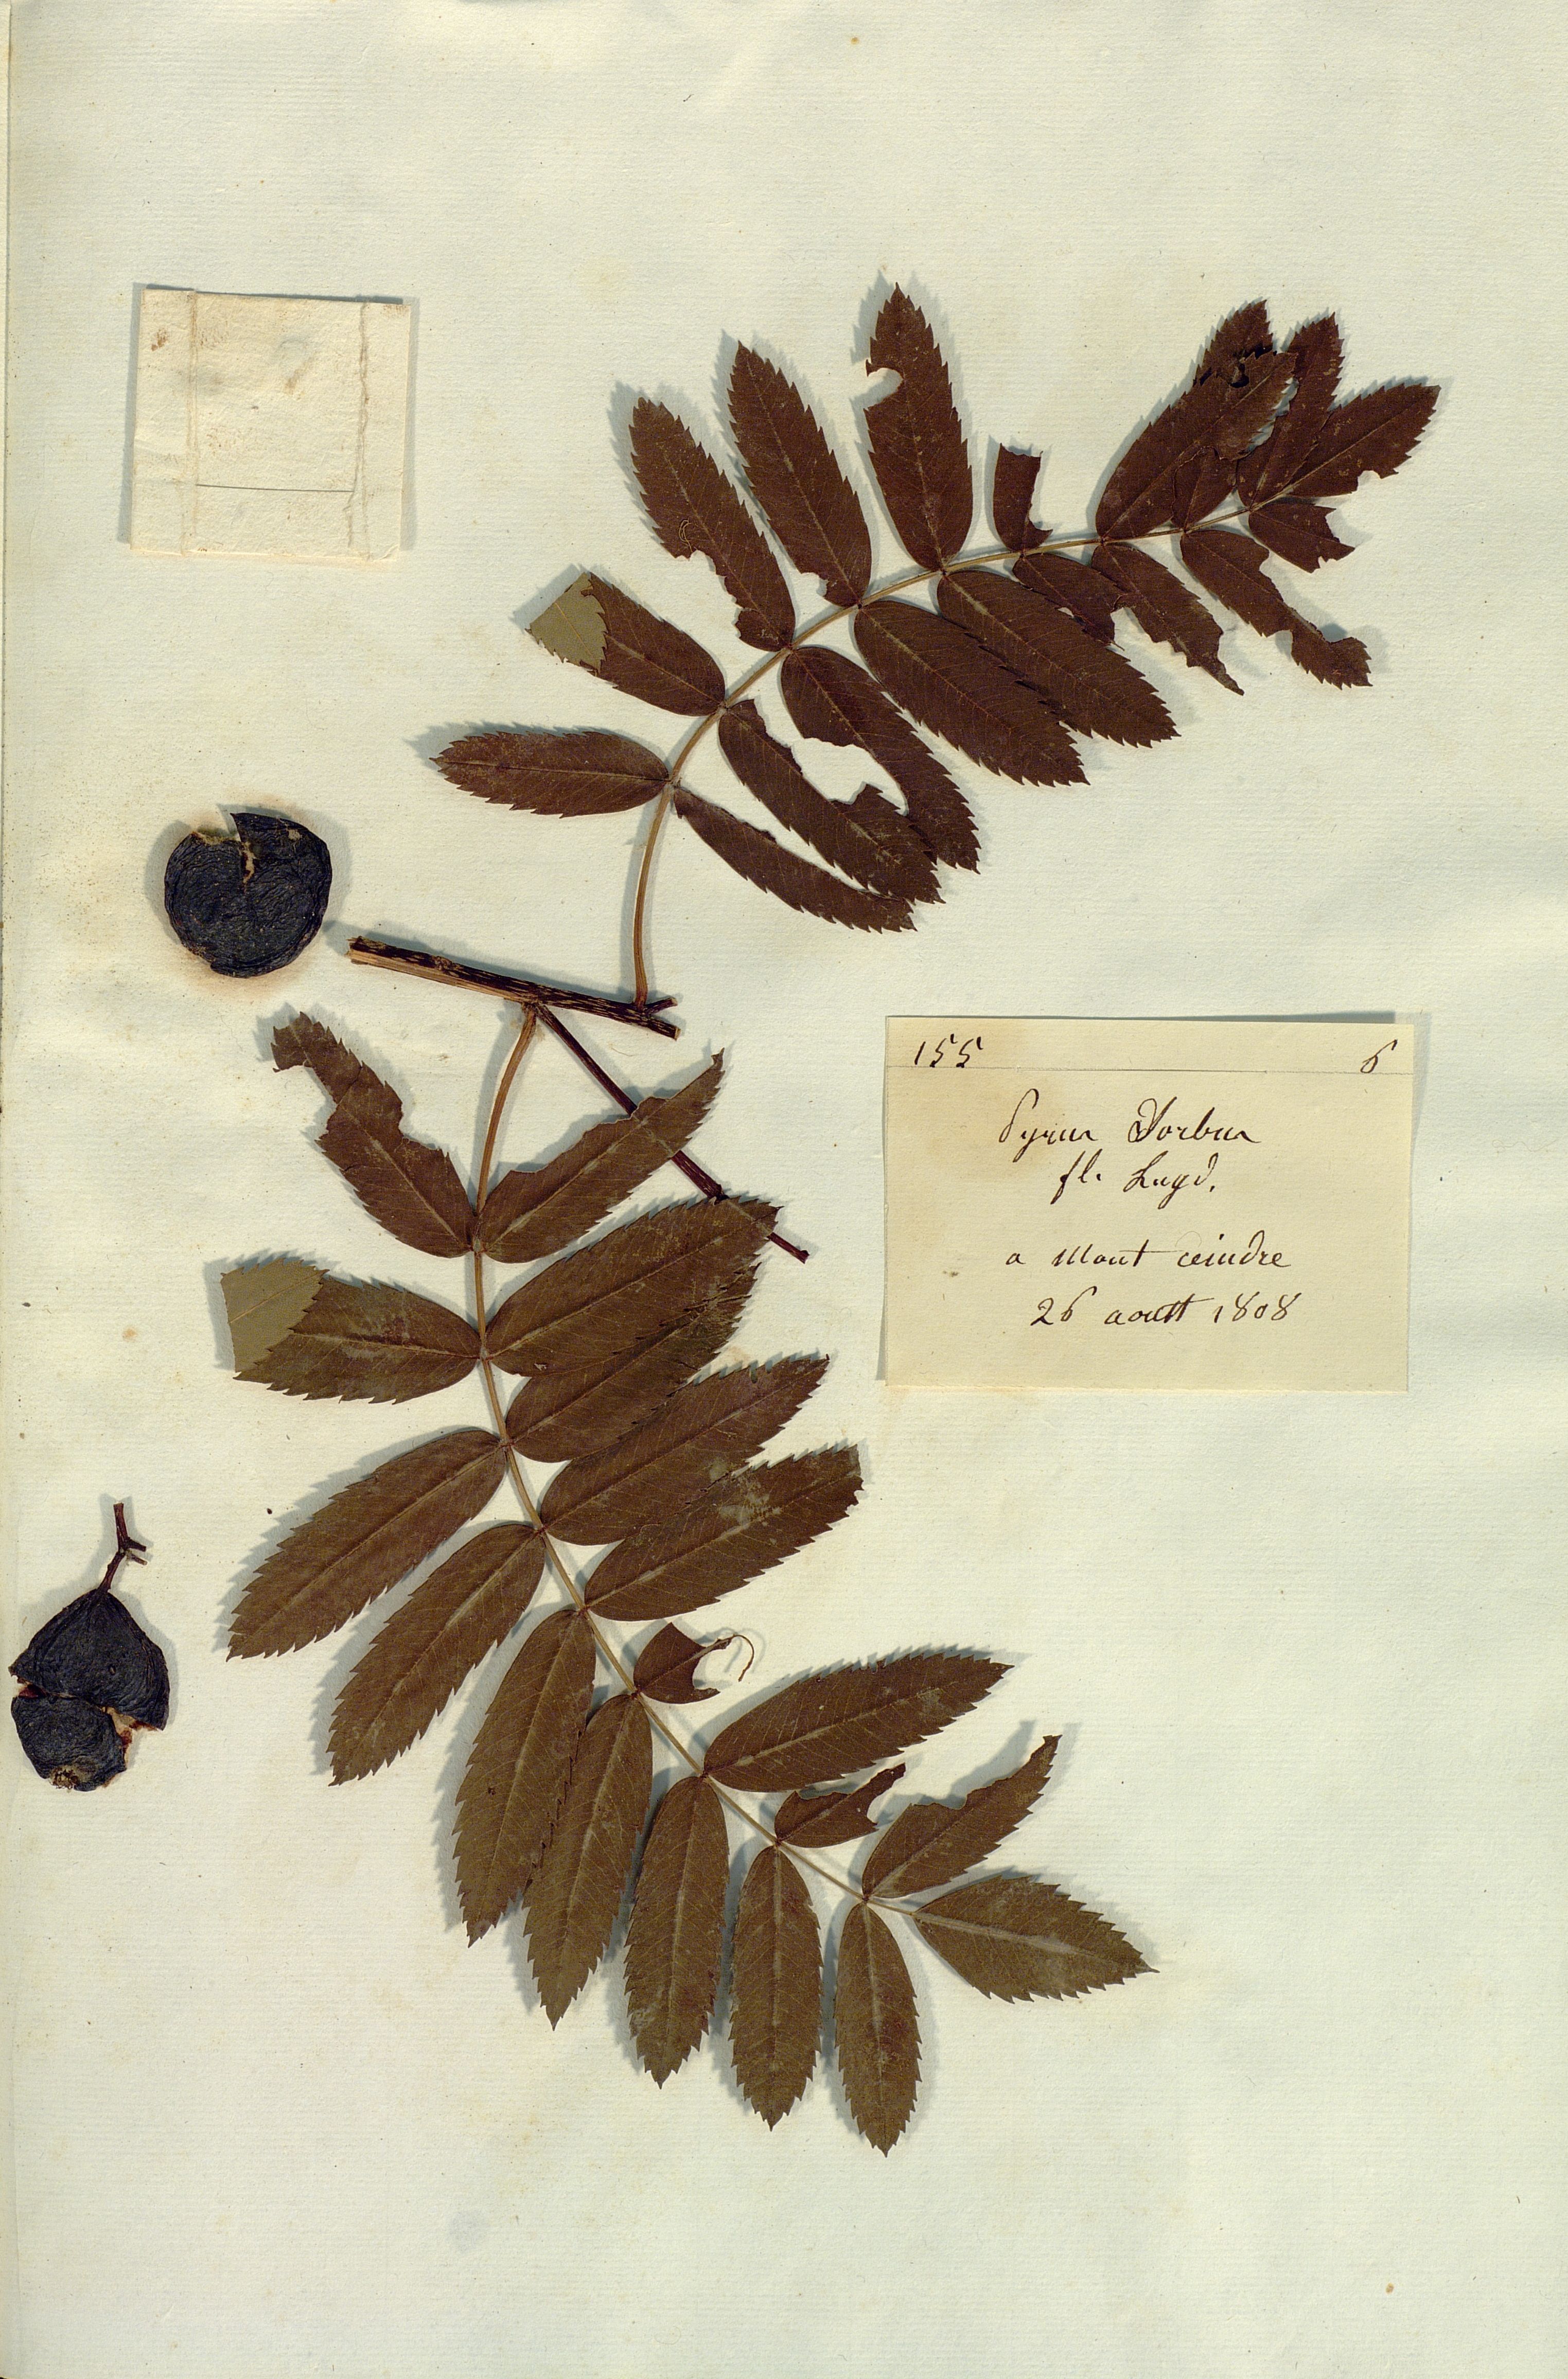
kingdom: Plantae
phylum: Tracheophyta
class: Magnoliopsida
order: Rosales
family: Rosaceae
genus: Cormus
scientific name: Cormus domestica
